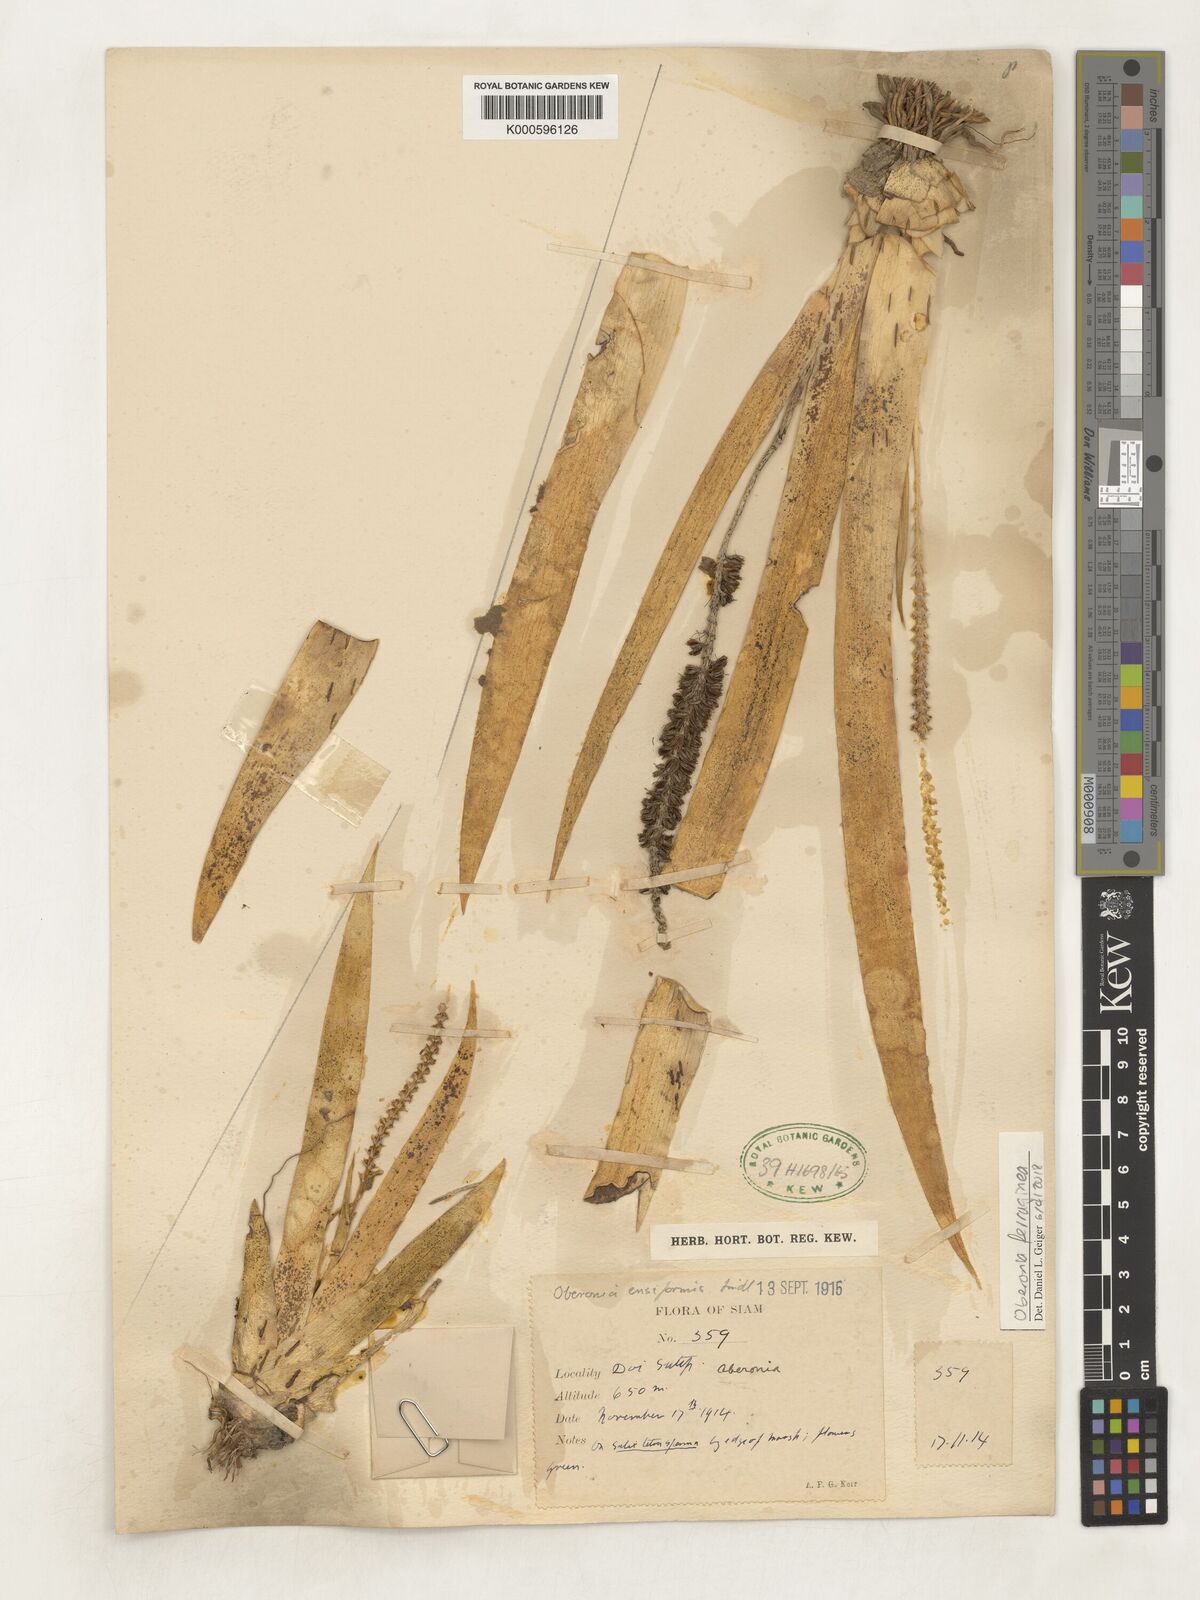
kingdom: Plantae
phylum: Tracheophyta
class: Liliopsida
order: Asparagales
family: Orchidaceae
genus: Oberonia
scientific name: Oberonia ferruginea
